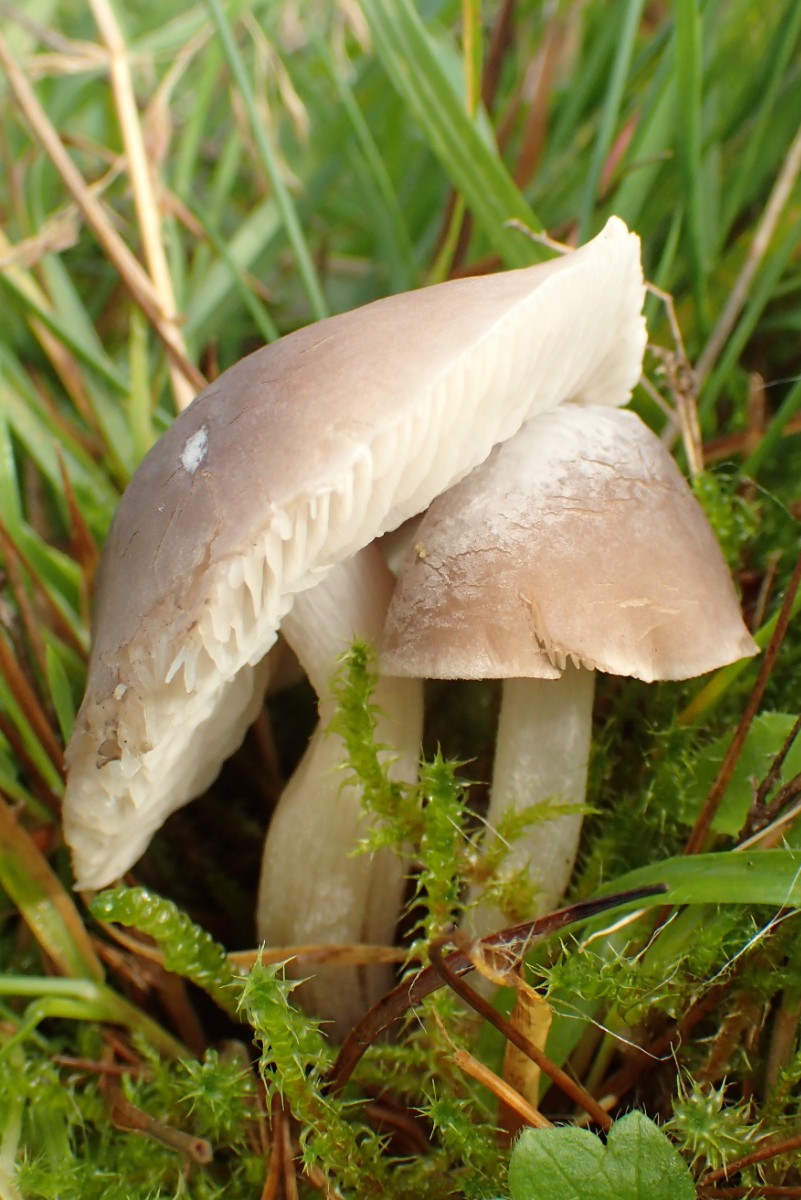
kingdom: Fungi
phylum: Basidiomycota
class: Agaricomycetes
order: Agaricales
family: Tricholomataceae
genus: Dermoloma
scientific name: Dermoloma cuneifolium
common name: eng-nonnehat
